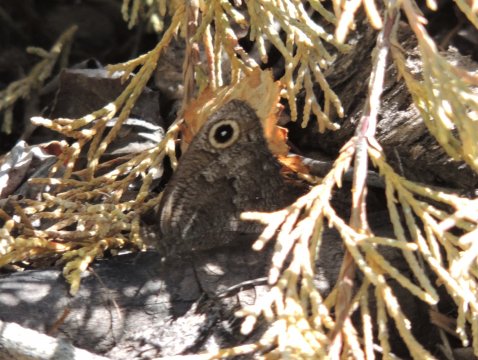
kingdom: Animalia
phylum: Arthropoda
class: Insecta
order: Lepidoptera
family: Nymphalidae
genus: Cercyonis
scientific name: Cercyonis sthenele
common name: Great Basin Wood-Nymph
